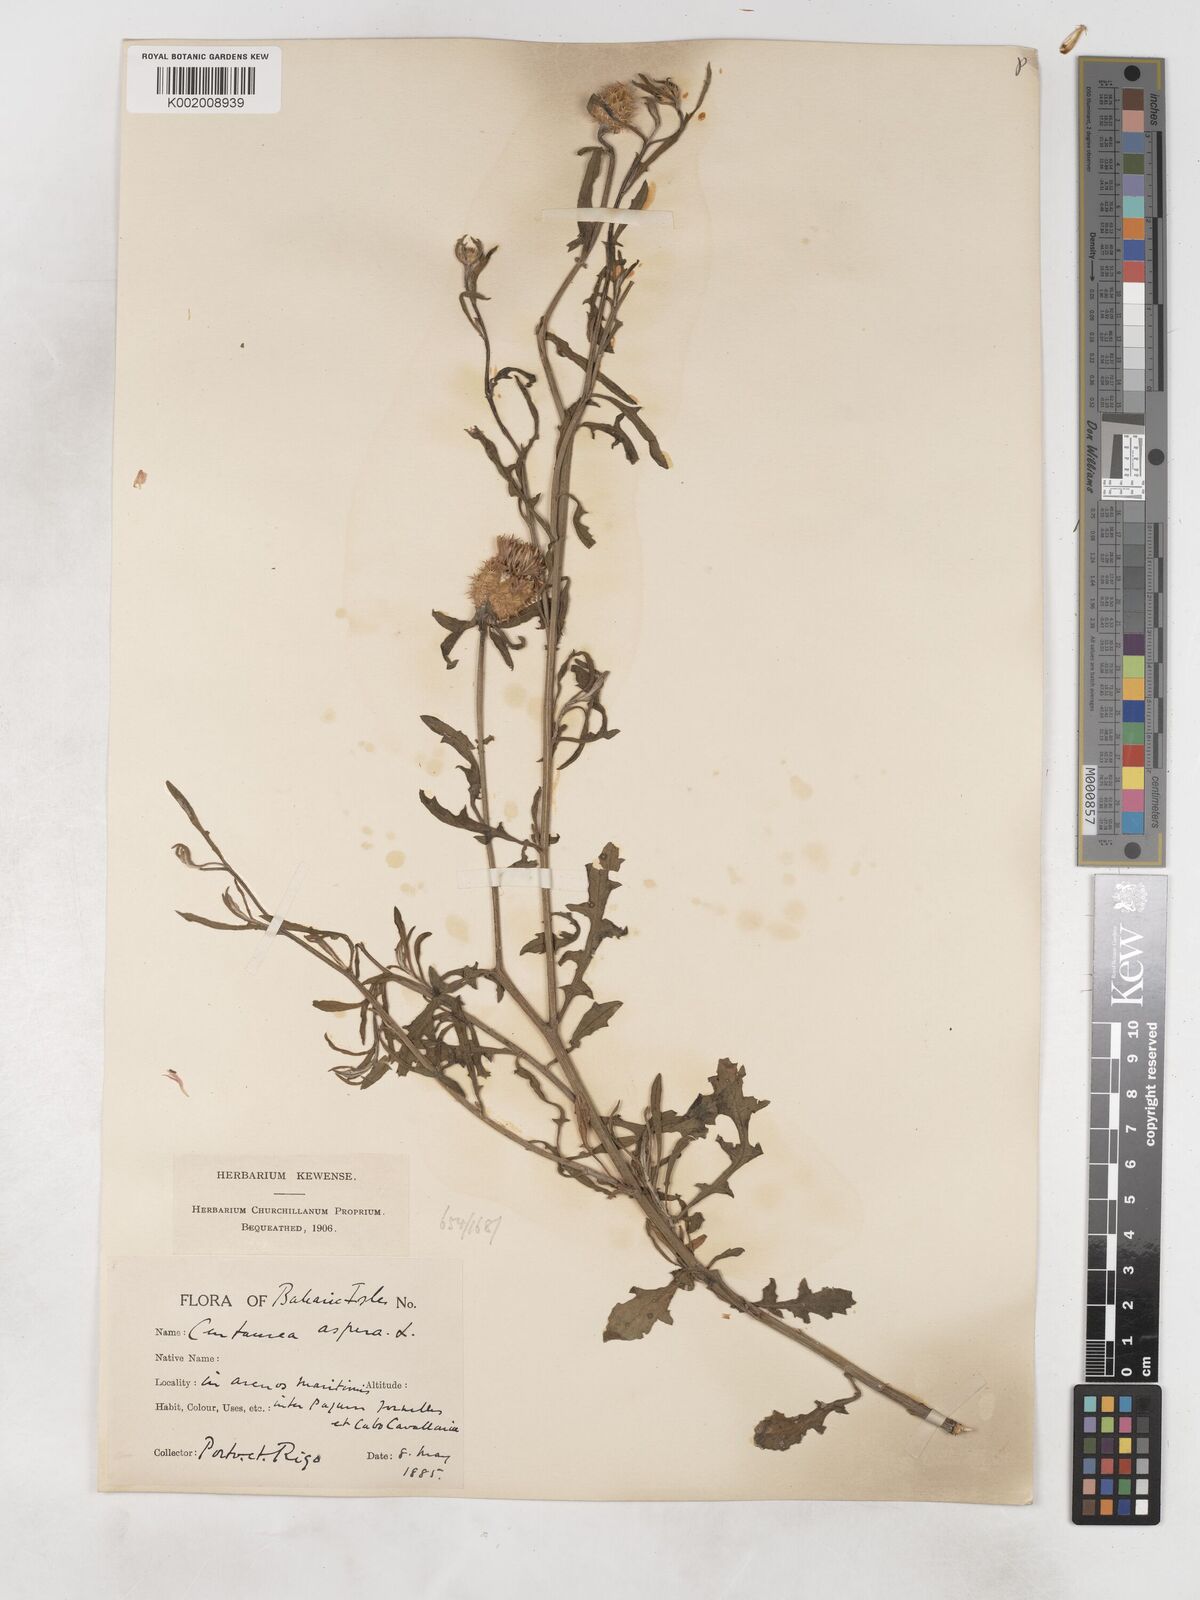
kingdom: Plantae
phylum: Tracheophyta
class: Magnoliopsida
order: Asterales
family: Asteraceae
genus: Centaurea
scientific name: Centaurea aspera
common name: Rough star-thistle
